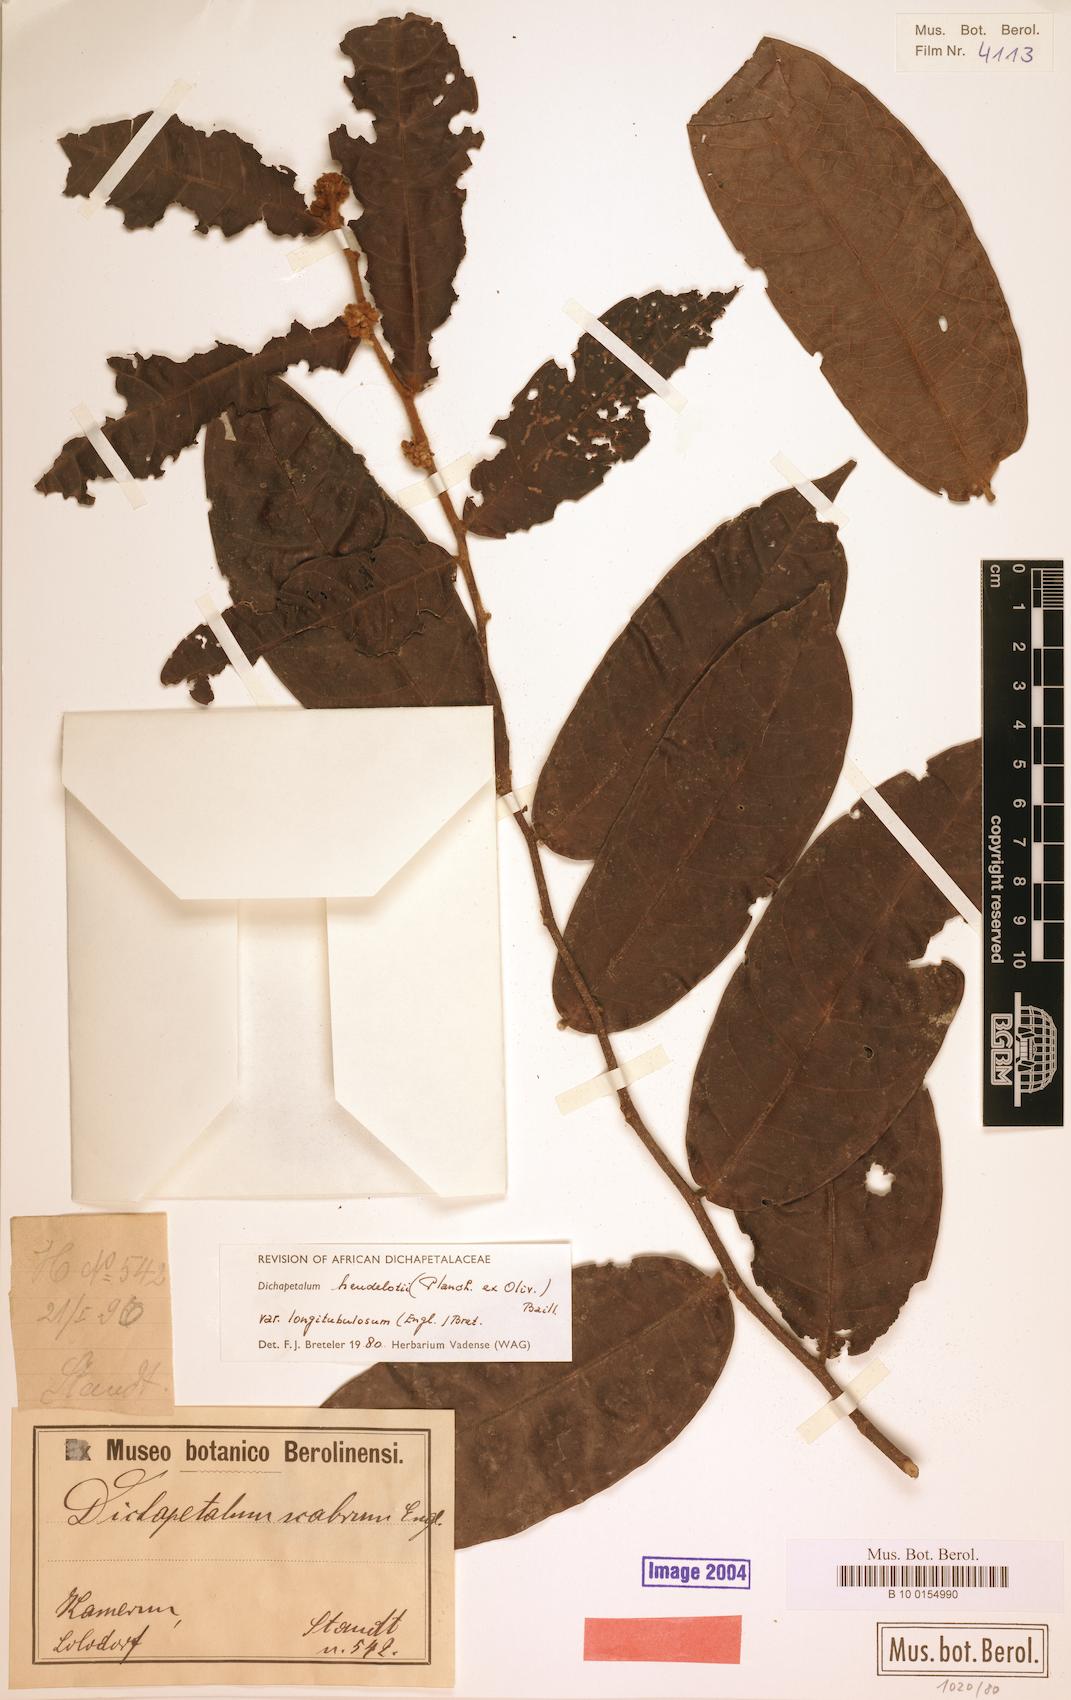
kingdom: Plantae
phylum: Tracheophyta
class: Magnoliopsida
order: Malpighiales
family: Dichapetalaceae
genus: Dichapetalum
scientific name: Dichapetalum heudelotii
